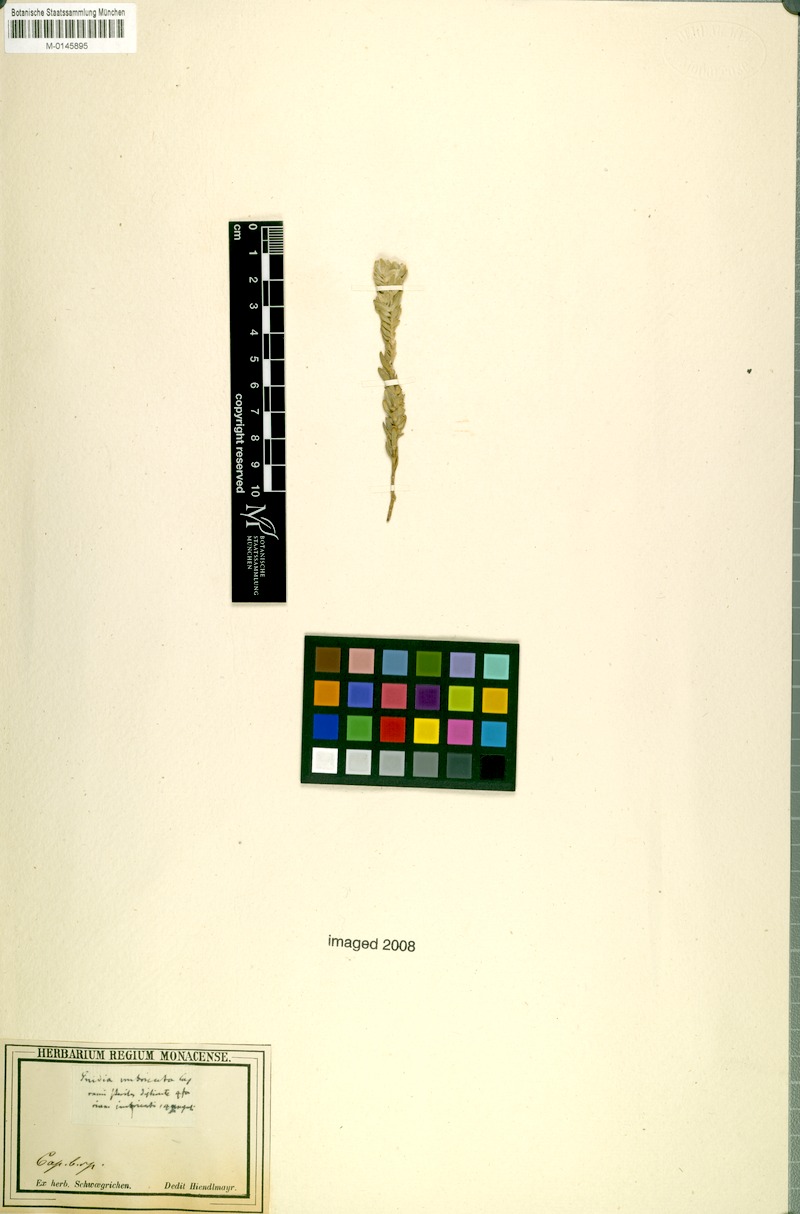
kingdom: Plantae
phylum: Tracheophyta
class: Magnoliopsida
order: Malvales
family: Thymelaeaceae
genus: Gnidia
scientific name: Gnidia imbricata
